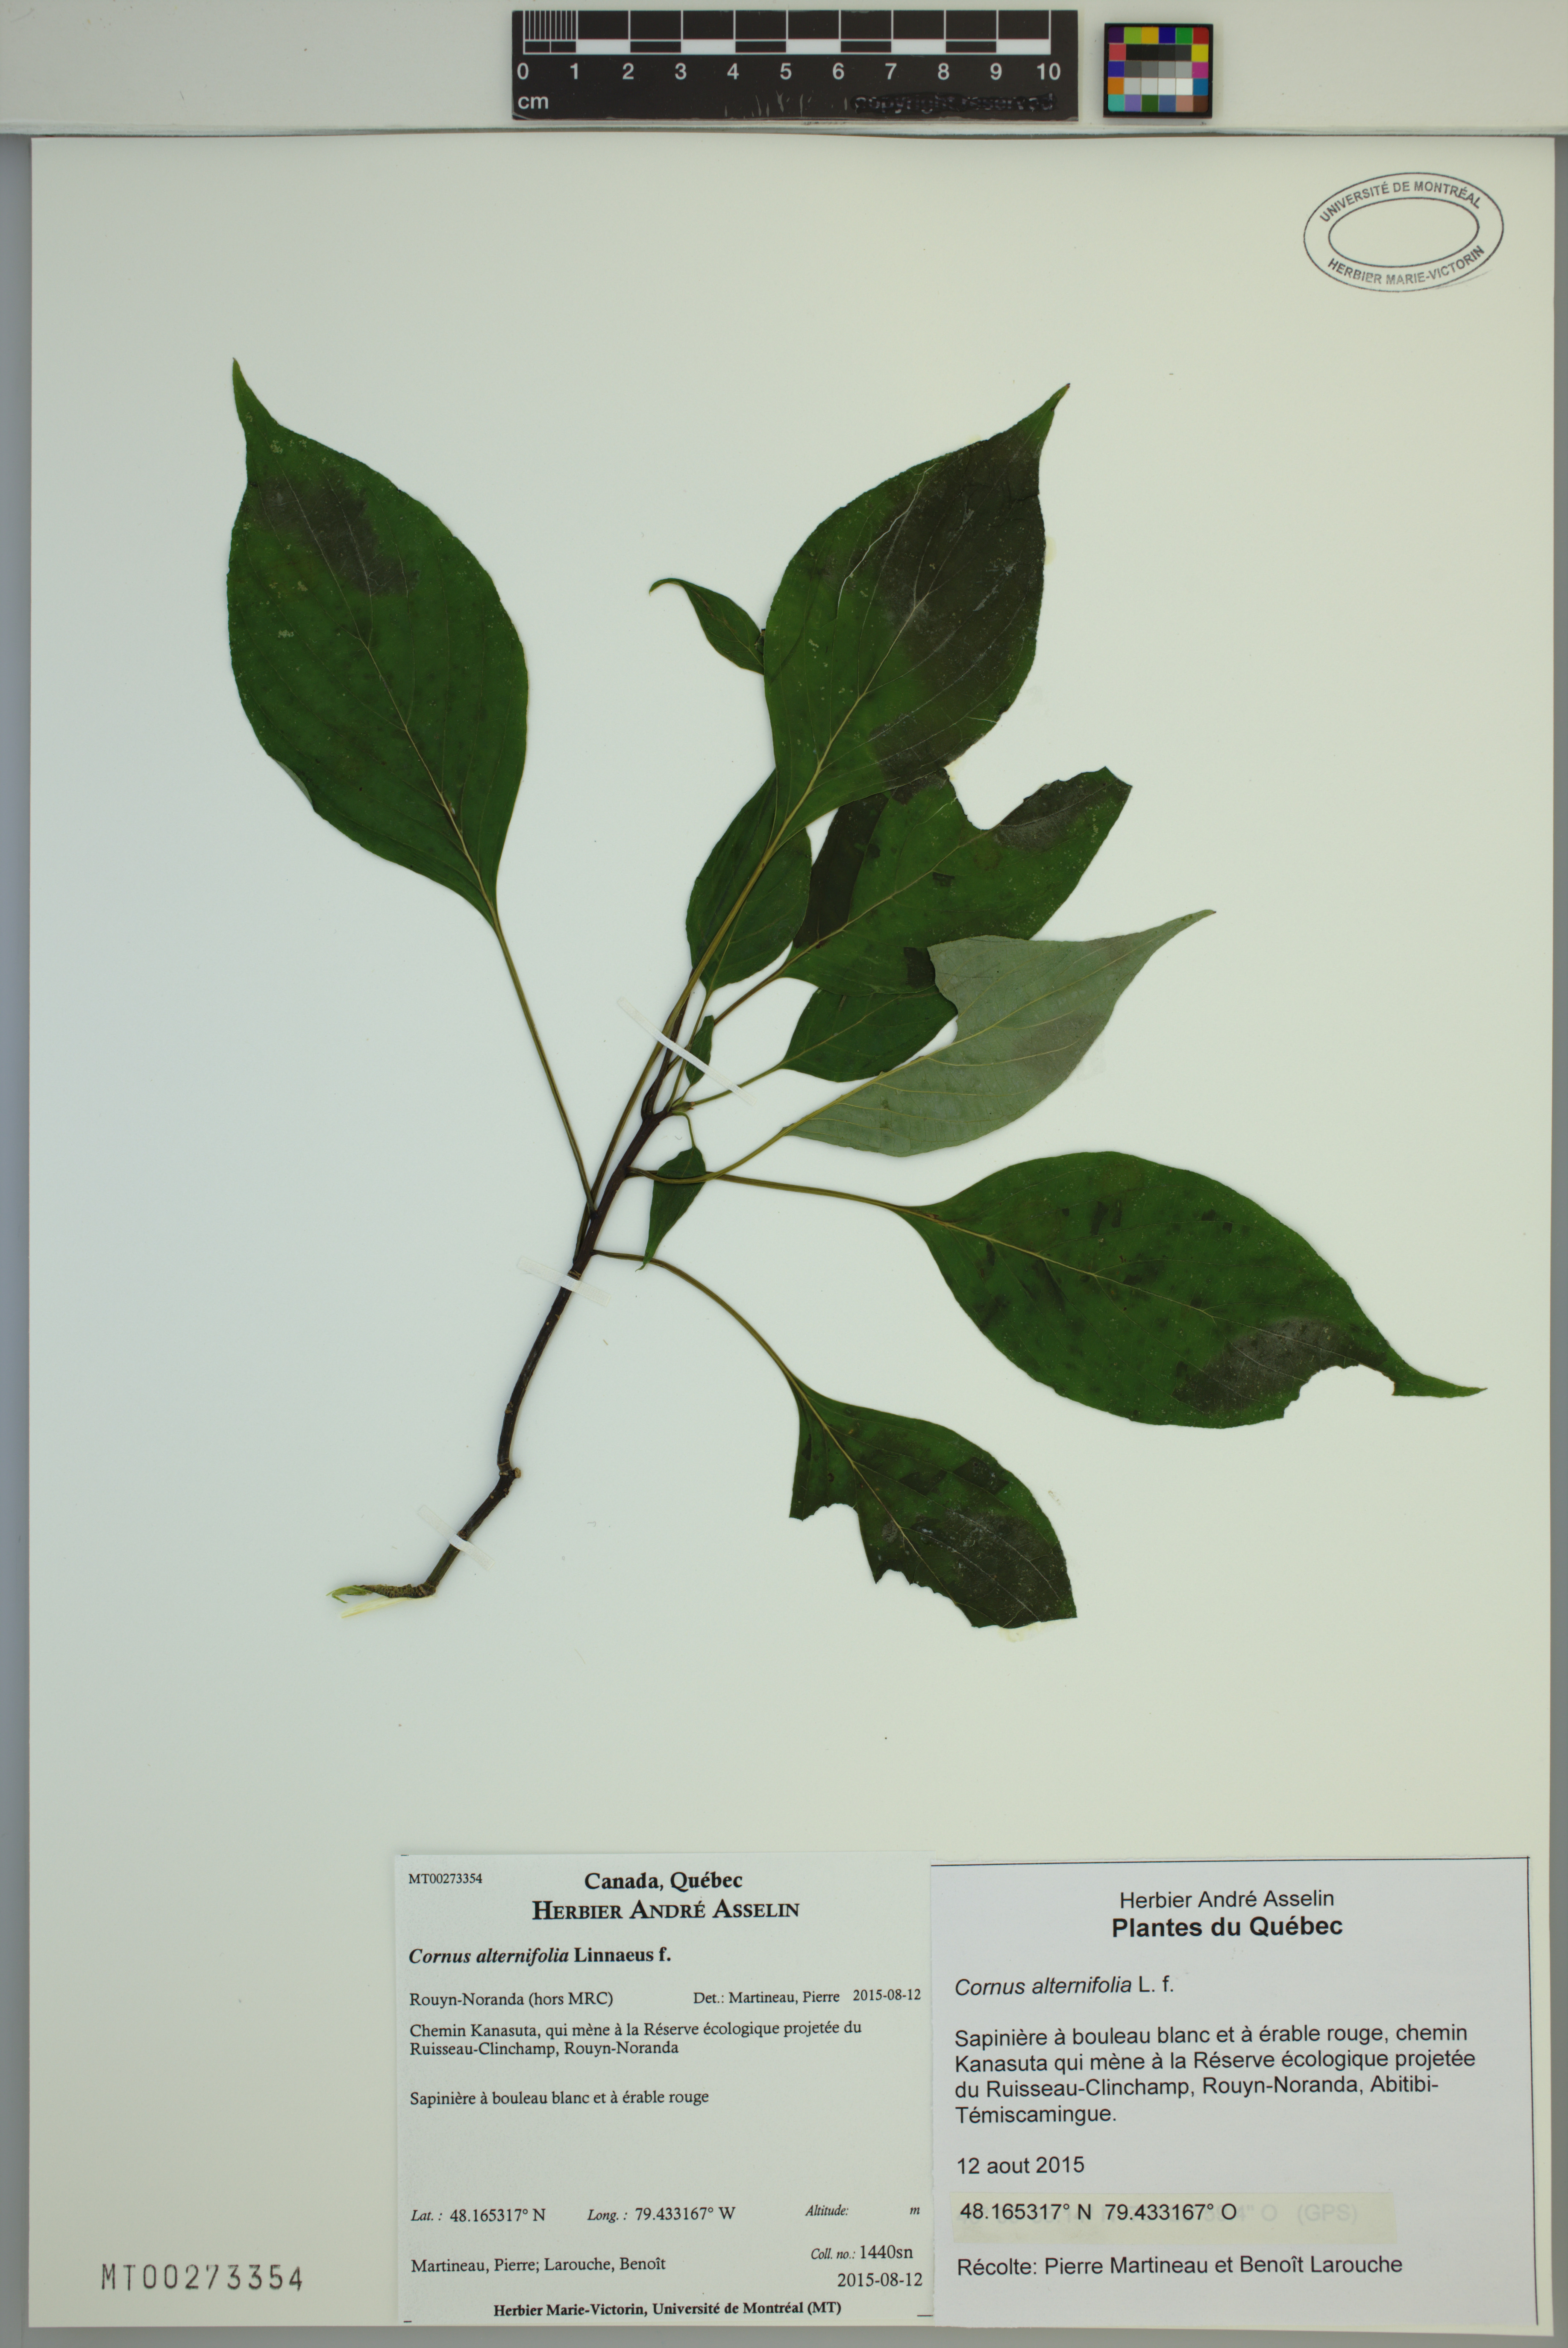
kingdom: Plantae
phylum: Tracheophyta
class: Magnoliopsida
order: Cornales
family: Cornaceae
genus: Cornus
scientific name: Cornus alternifolia
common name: Pagoda dogwood
